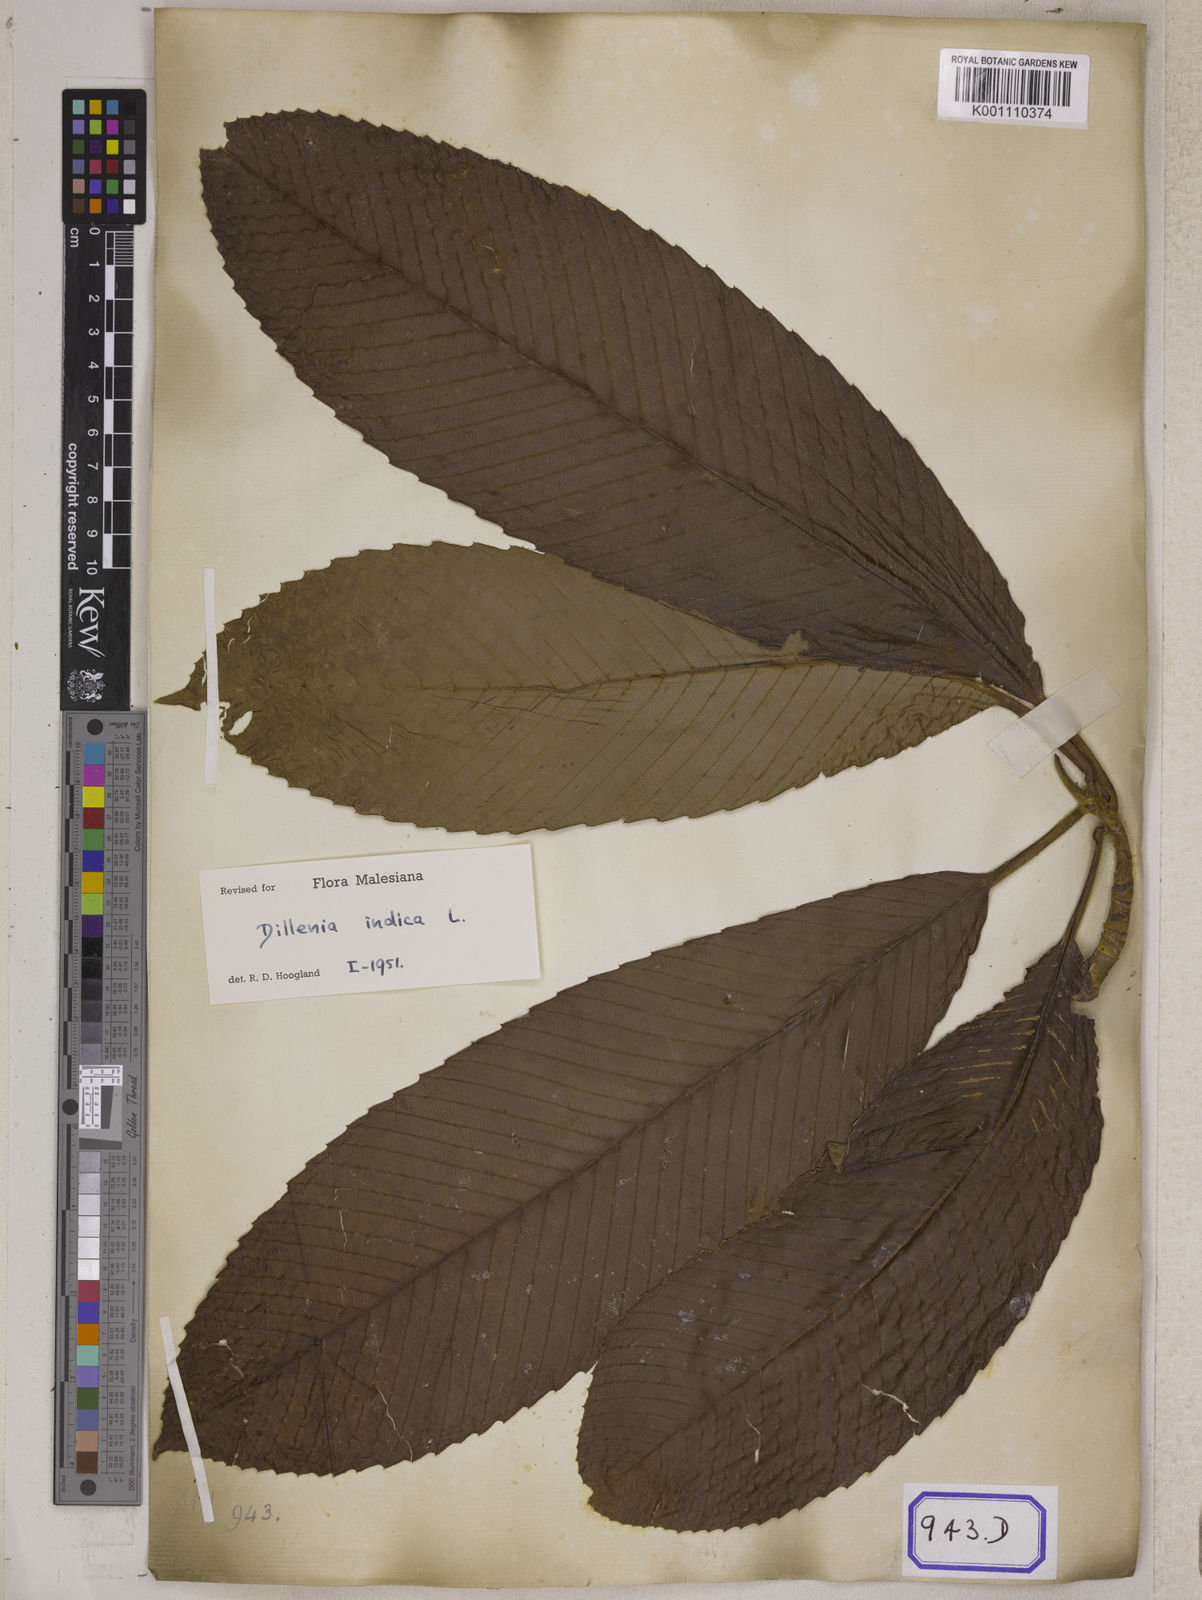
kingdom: Plantae
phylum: Tracheophyta
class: Magnoliopsida
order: Dilleniales
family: Dilleniaceae
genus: Dillenia
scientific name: Dillenia indica
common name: Elephant apple
